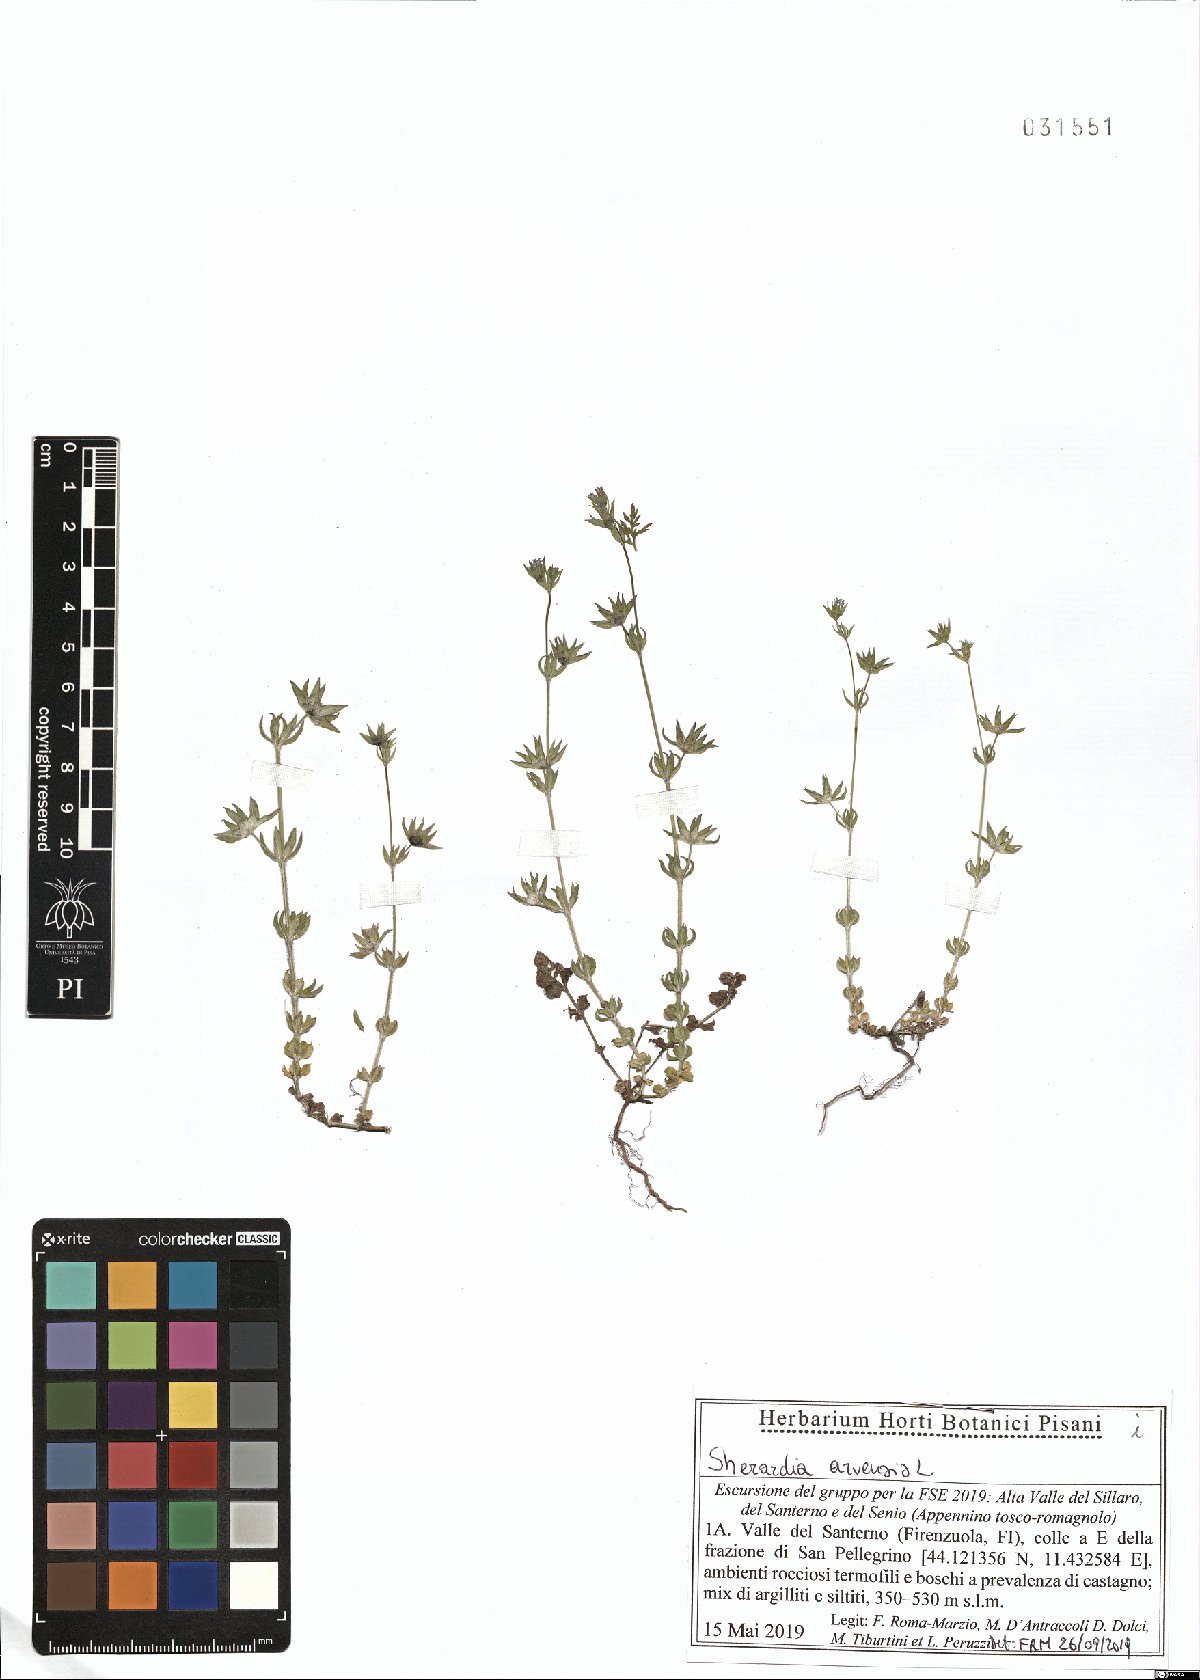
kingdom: Plantae
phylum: Tracheophyta
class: Magnoliopsida
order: Gentianales
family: Rubiaceae
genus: Sherardia
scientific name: Sherardia arvensis
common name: Field madder
